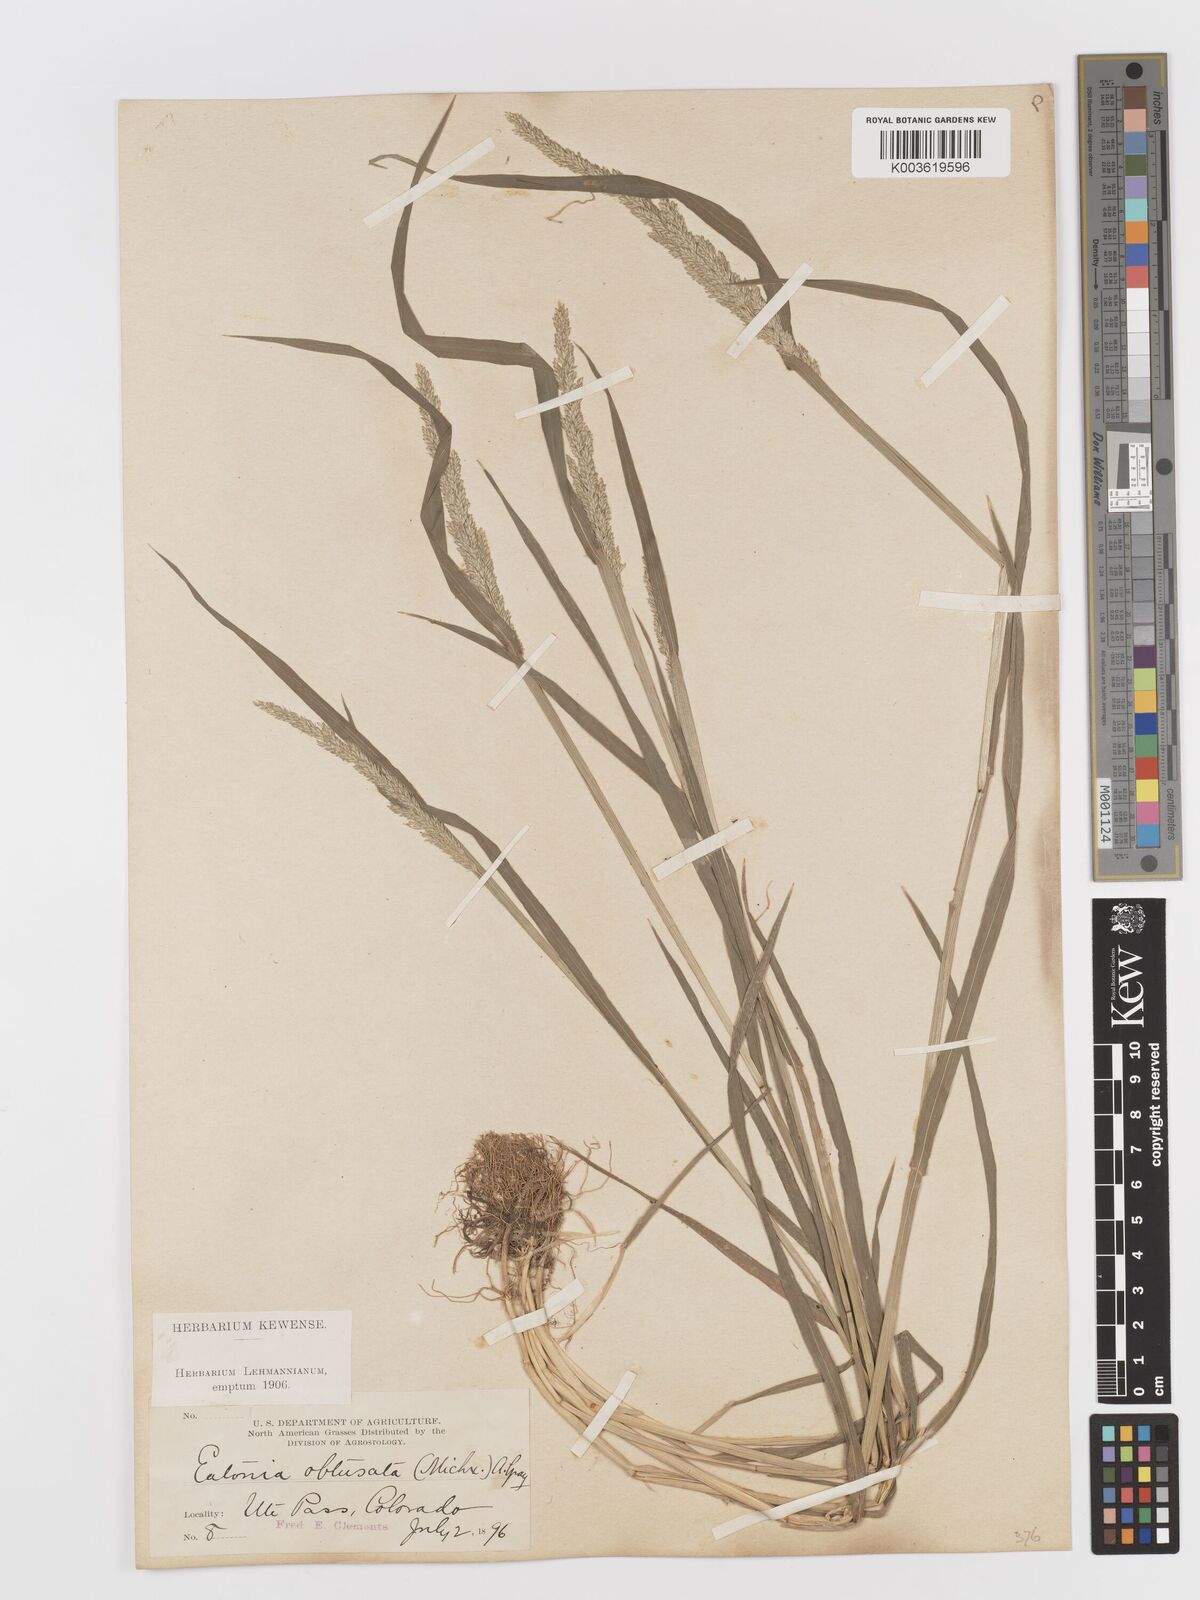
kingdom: Plantae
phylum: Tracheophyta
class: Liliopsida
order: Poales
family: Poaceae
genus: Sphenopholis
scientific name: Sphenopholis obtusata
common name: Prairie grass
